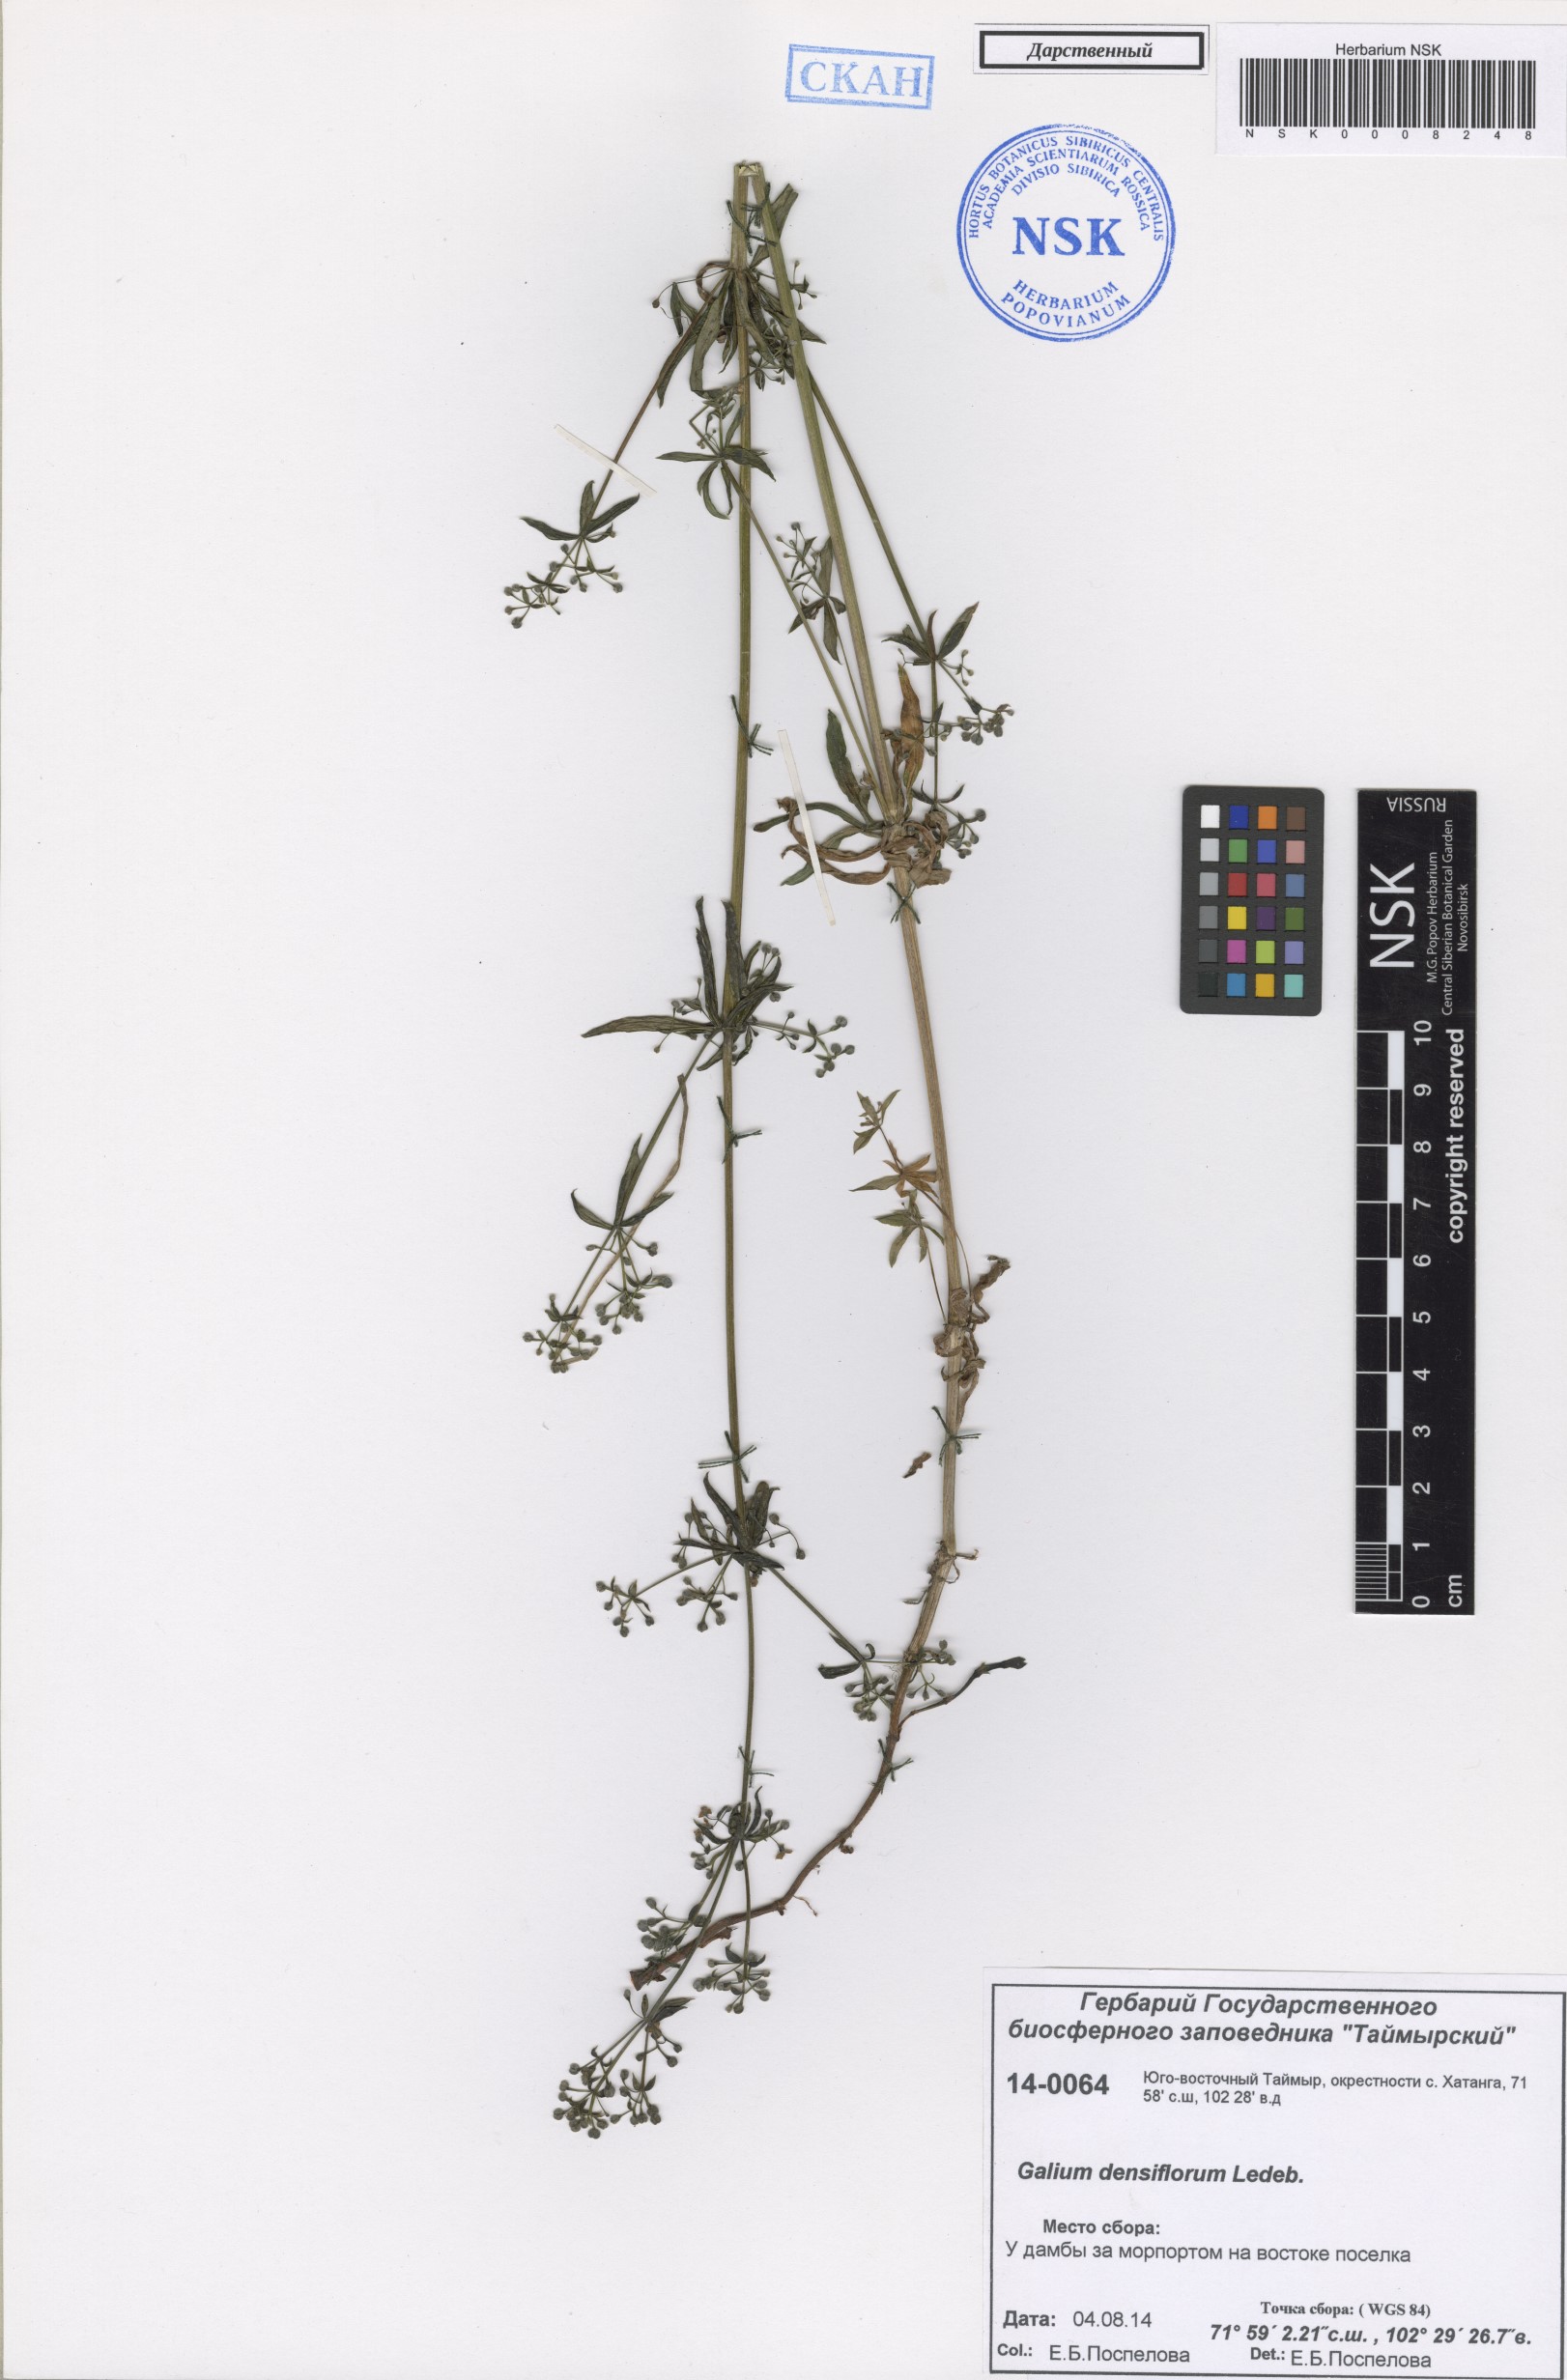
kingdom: Plantae
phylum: Tracheophyta
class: Magnoliopsida
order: Gentianales
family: Rubiaceae
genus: Galium
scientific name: Galium densiflorum
